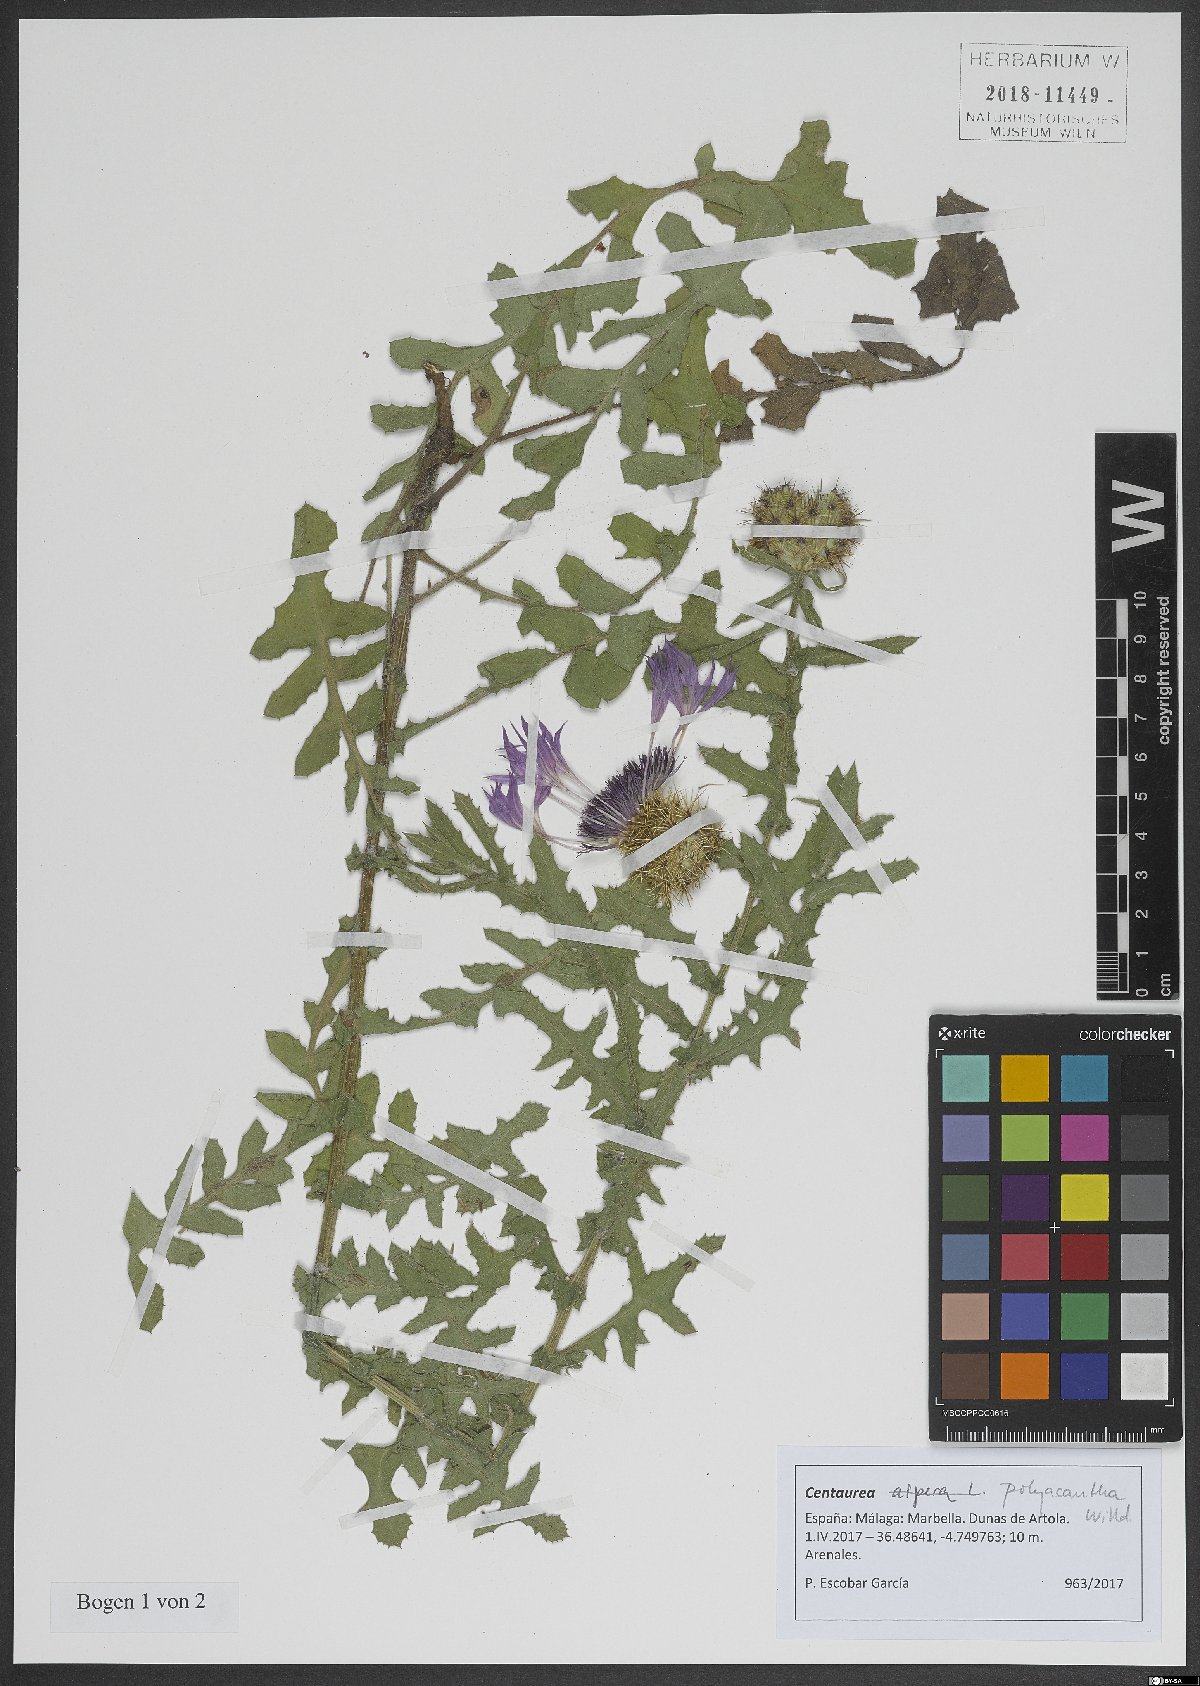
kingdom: Plantae
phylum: Tracheophyta
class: Magnoliopsida
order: Asterales
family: Asteraceae
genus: Centaurea
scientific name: Centaurea polyacantha
